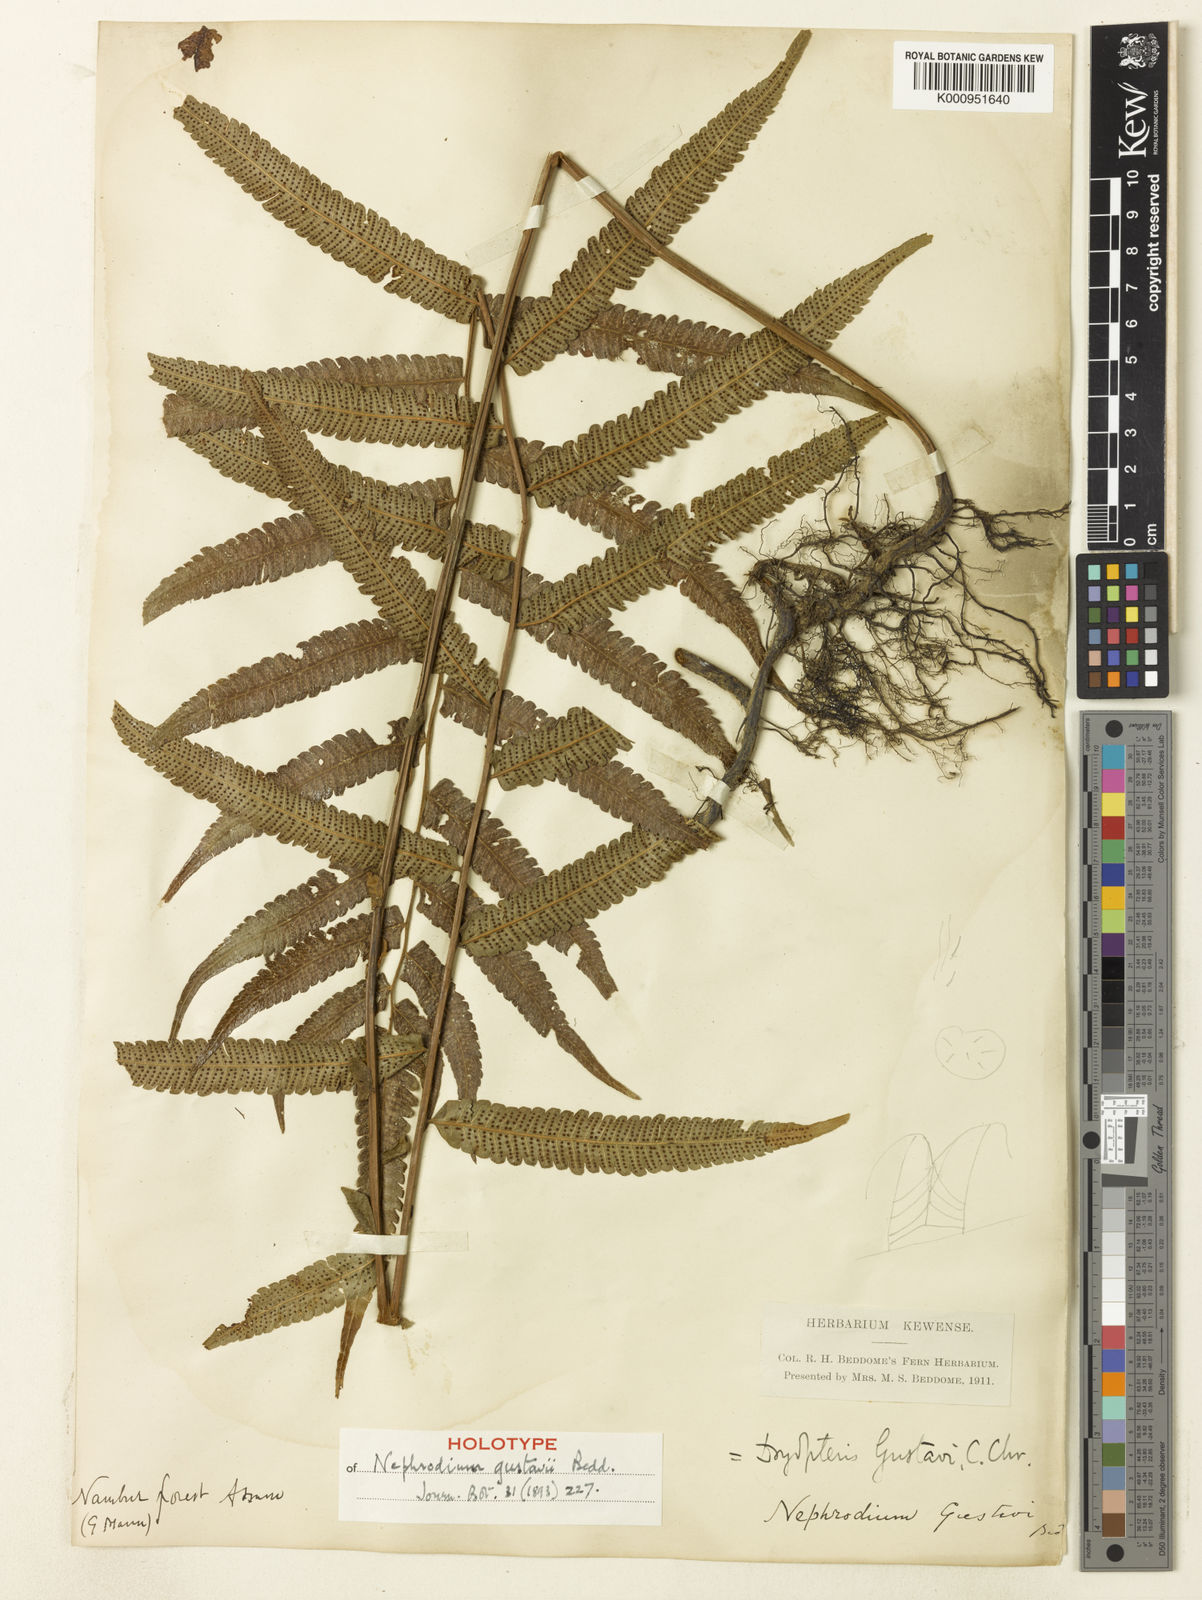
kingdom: Plantae
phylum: Tracheophyta
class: Polypodiopsida
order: Polypodiales
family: Thelypteridaceae
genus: Christella
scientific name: Christella gustavi
